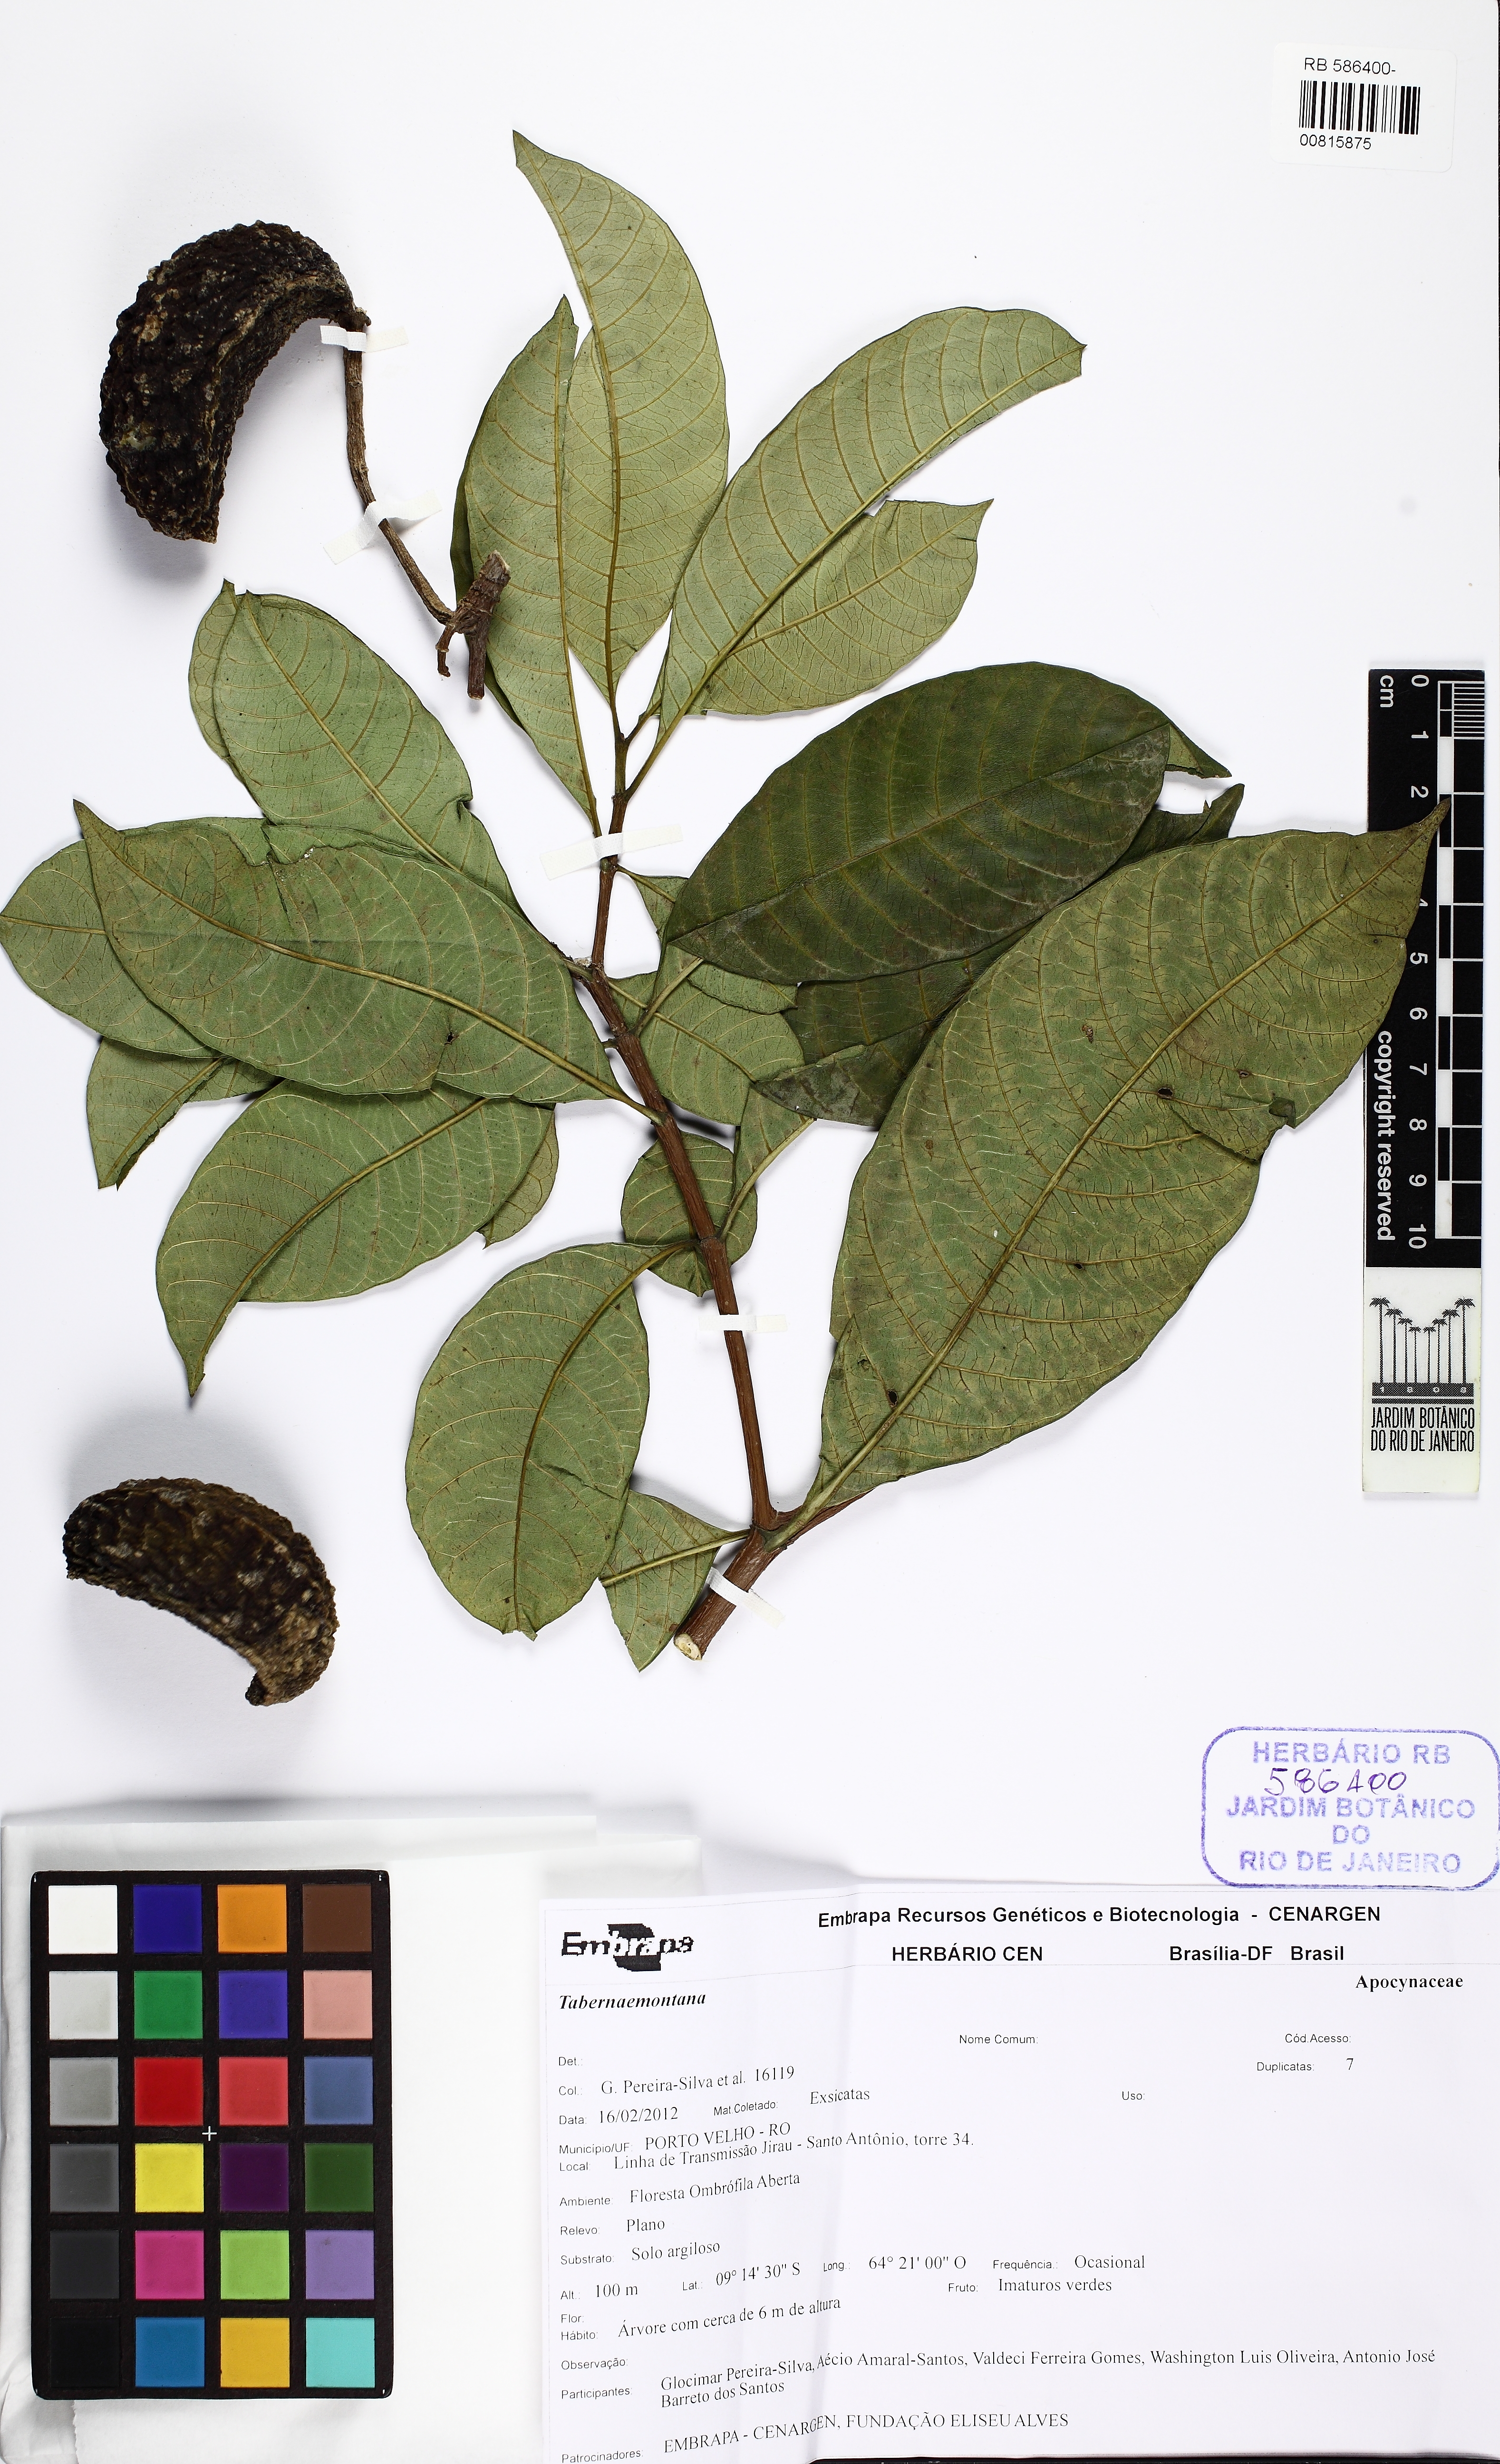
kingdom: Plantae
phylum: Tracheophyta
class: Magnoliopsida
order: Gentianales
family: Apocynaceae
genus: Tabernaemontana
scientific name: Tabernaemontana
